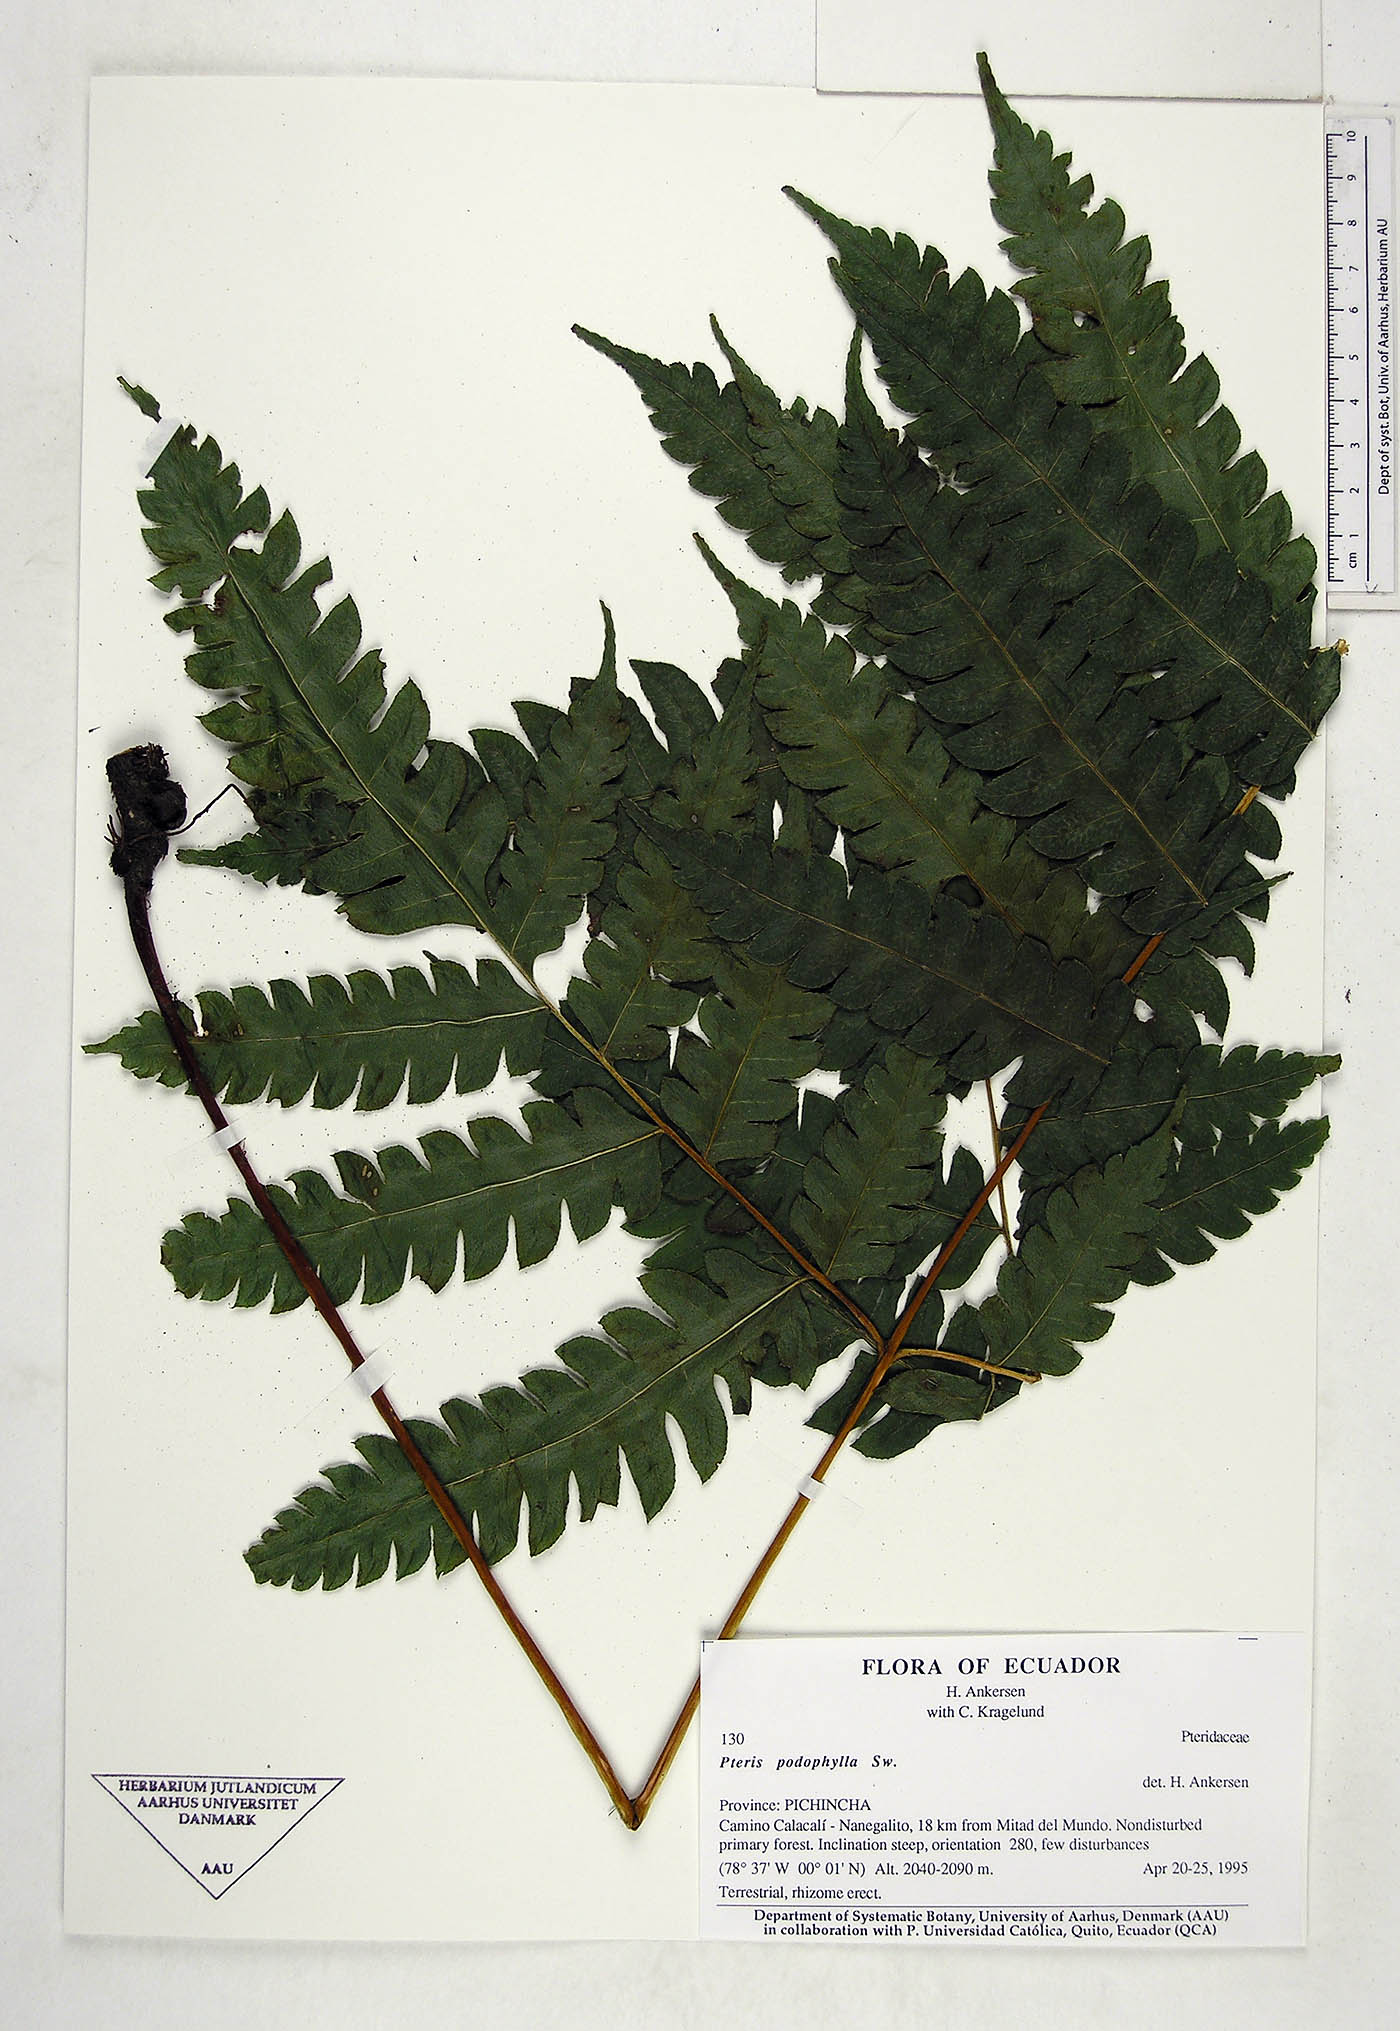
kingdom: Plantae
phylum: Tracheophyta
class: Polypodiopsida
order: Polypodiales
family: Pteridaceae
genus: Pteris
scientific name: Pteris podophylla
